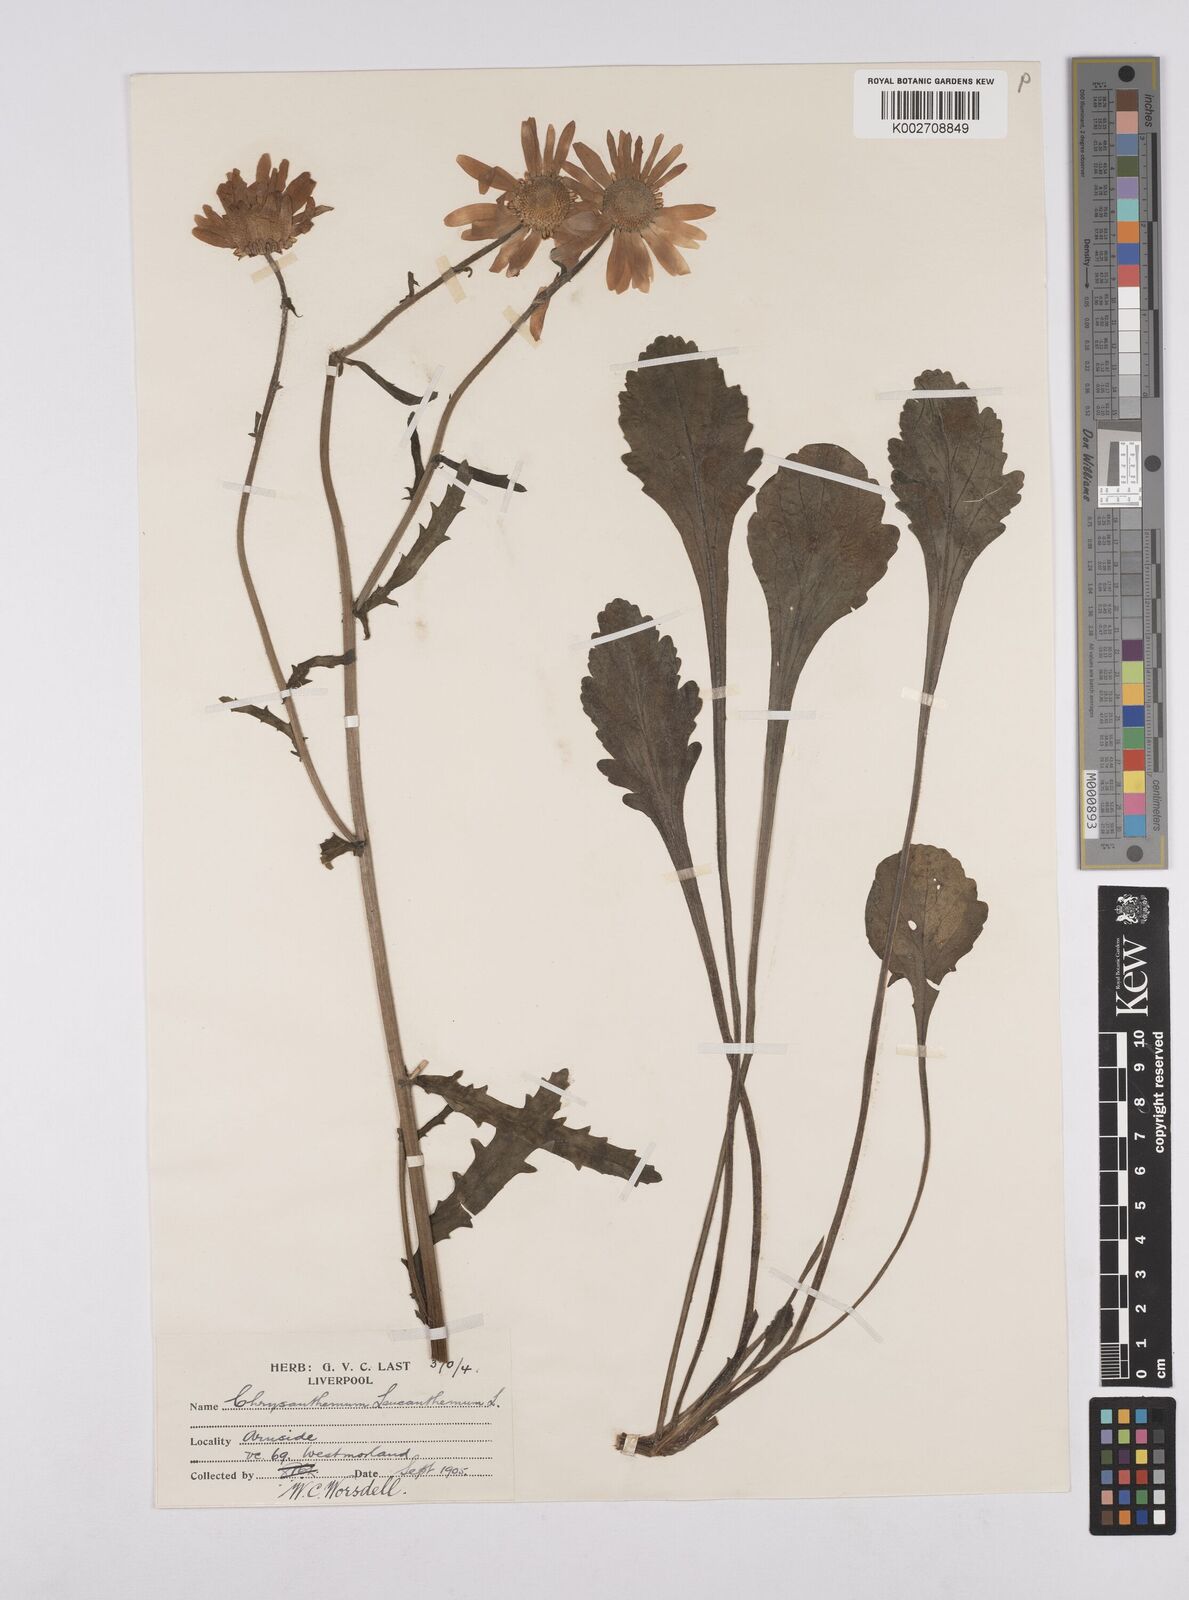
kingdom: Plantae
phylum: Tracheophyta
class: Magnoliopsida
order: Asterales
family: Asteraceae
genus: Leucanthemum
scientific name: Leucanthemum
